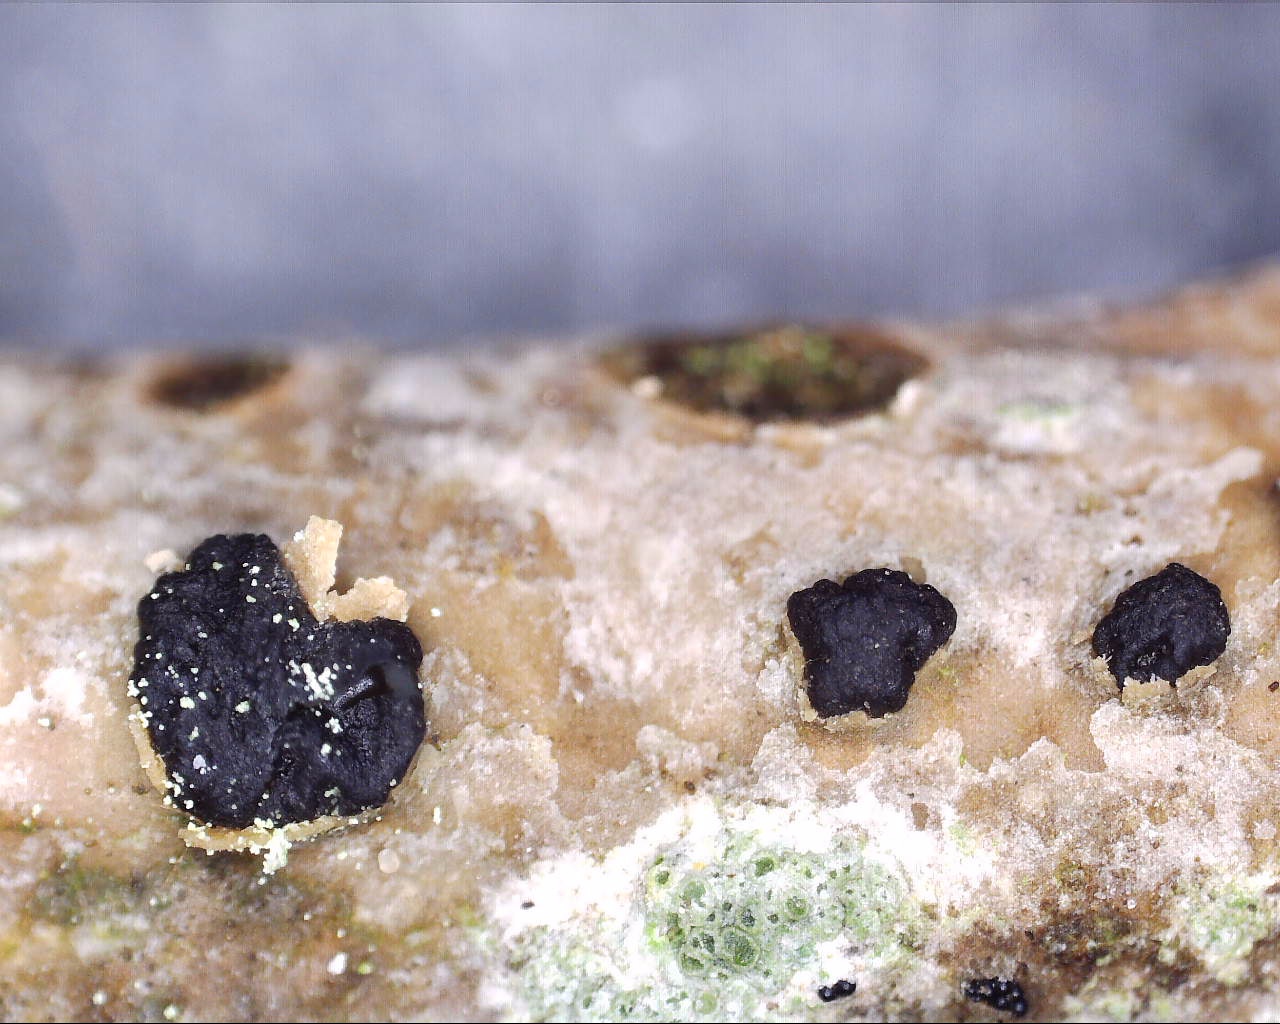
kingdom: Fungi
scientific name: Fungi
